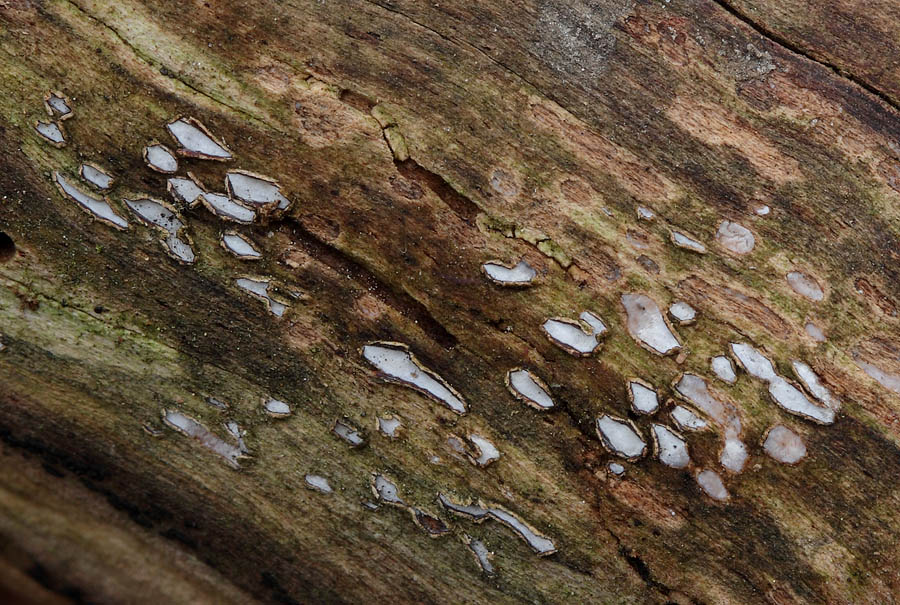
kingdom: Fungi
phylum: Ascomycota
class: Leotiomycetes
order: Chaetomellales
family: Marthamycetaceae
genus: Propolis
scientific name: Propolis farinosa
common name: almindelig vedsprængerskive
